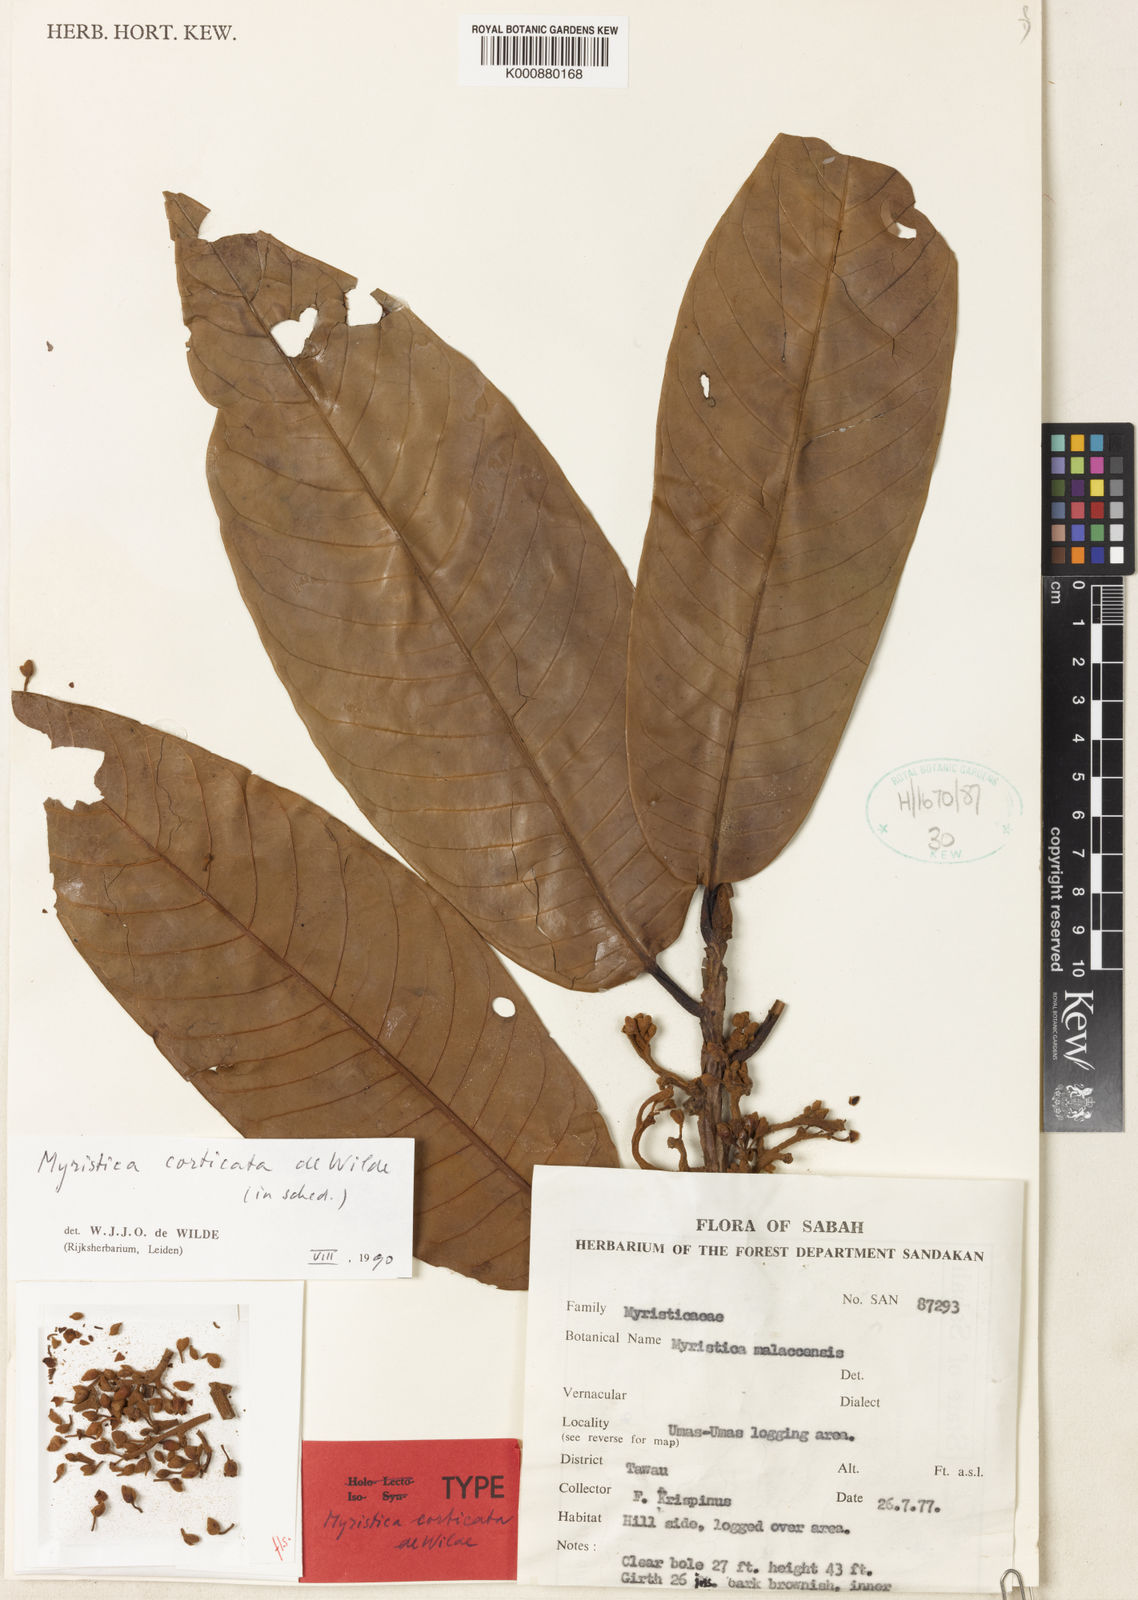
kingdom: Plantae
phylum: Tracheophyta
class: Magnoliopsida
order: Magnoliales
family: Myristicaceae
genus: Myristica
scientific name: Myristica corticata
